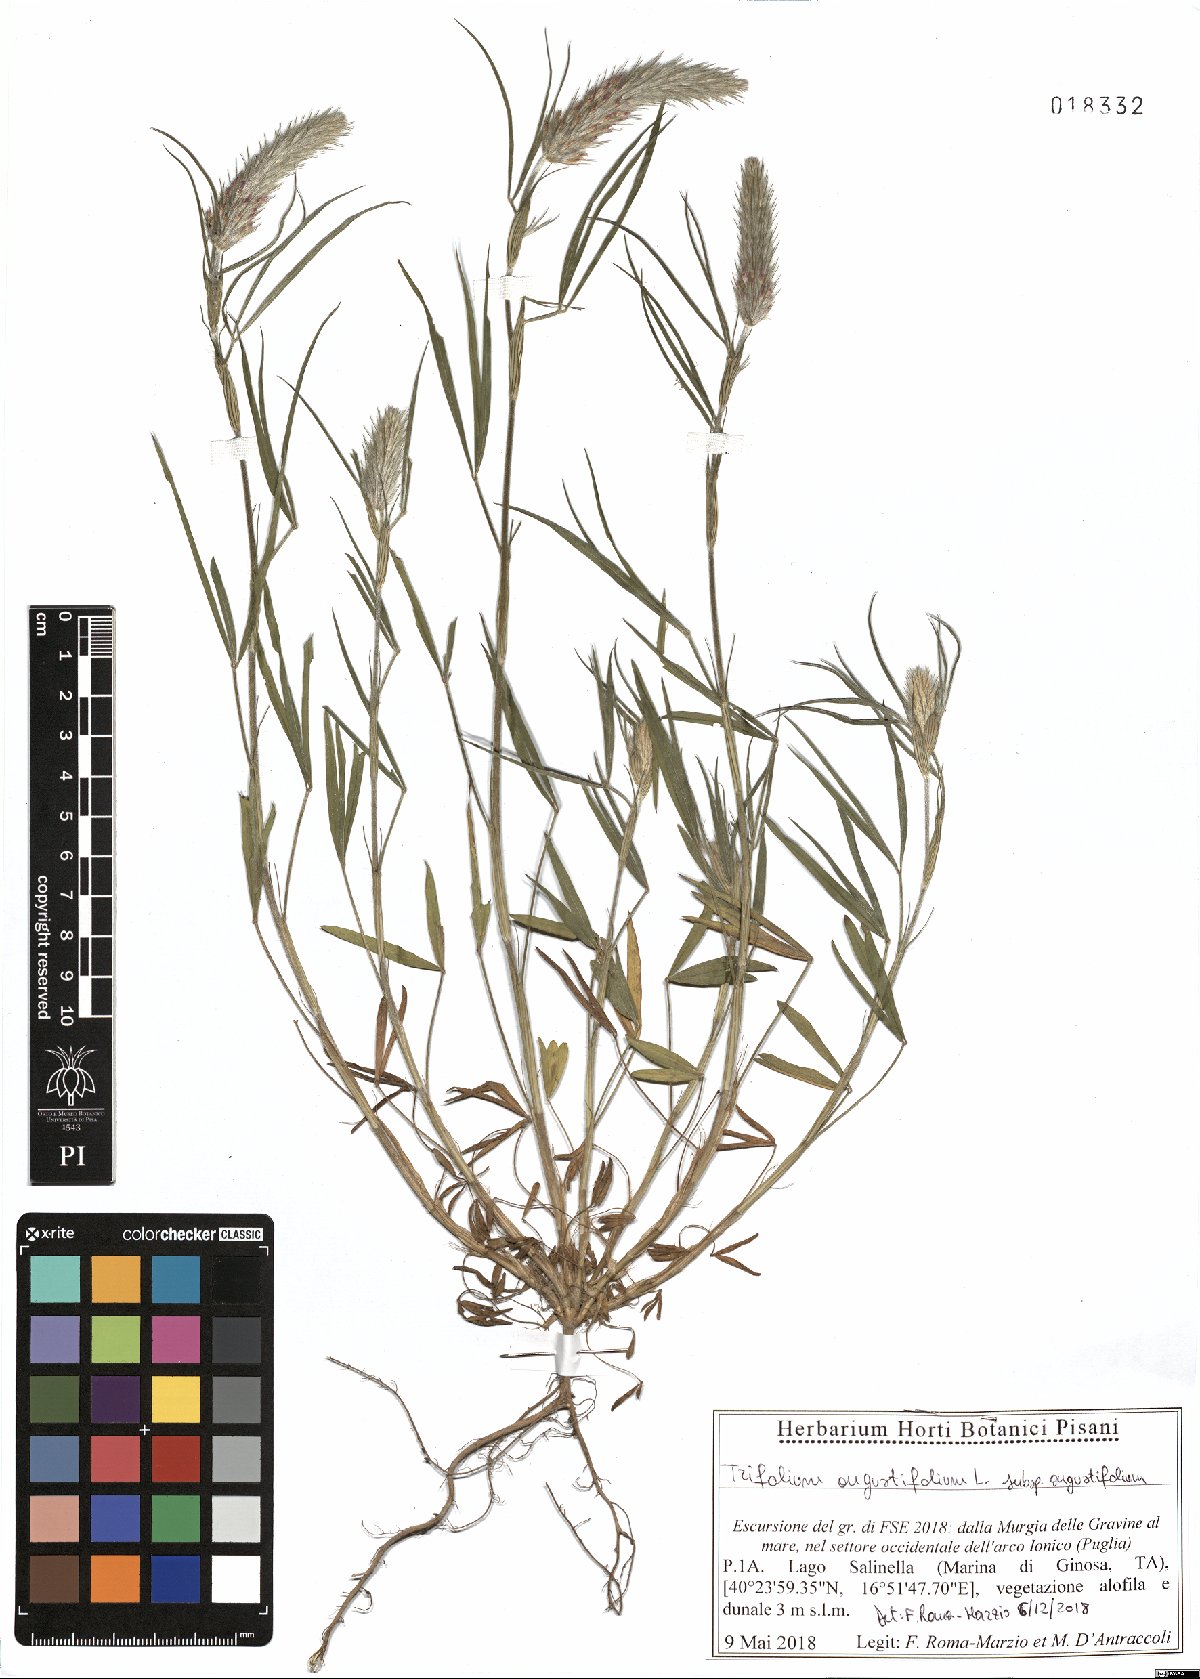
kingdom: Plantae
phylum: Tracheophyta
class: Magnoliopsida
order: Fabales
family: Fabaceae
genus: Trifolium
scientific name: Trifolium angustifolium
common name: Narrow clover
